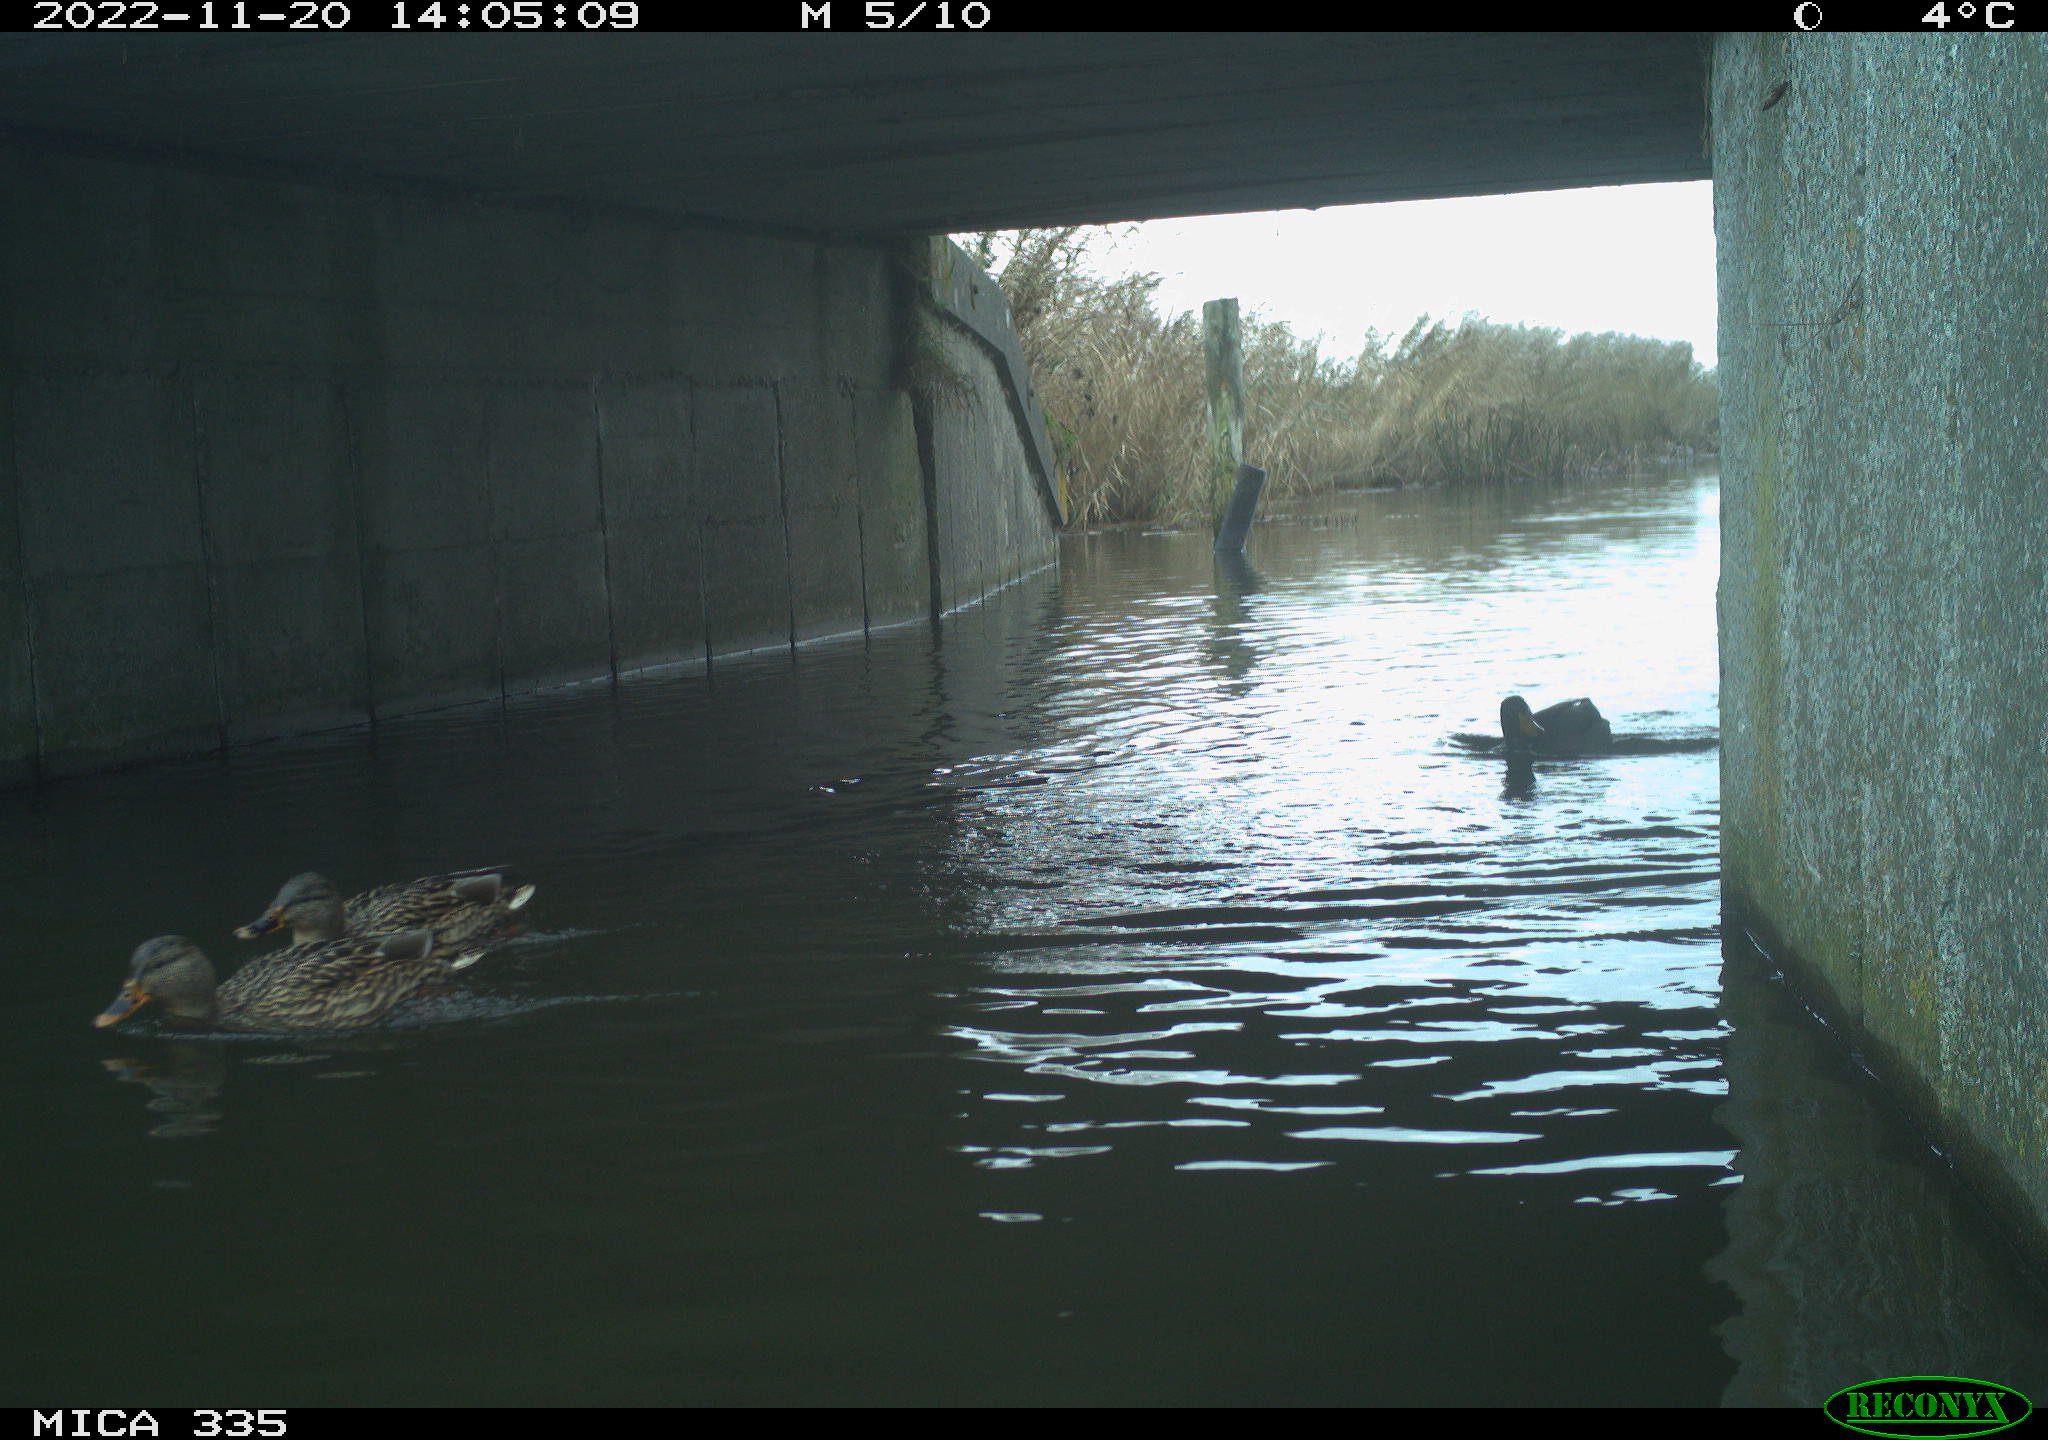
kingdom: Animalia
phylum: Chordata
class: Aves
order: Anseriformes
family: Anatidae
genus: Anas
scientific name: Anas platyrhynchos
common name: Mallard
